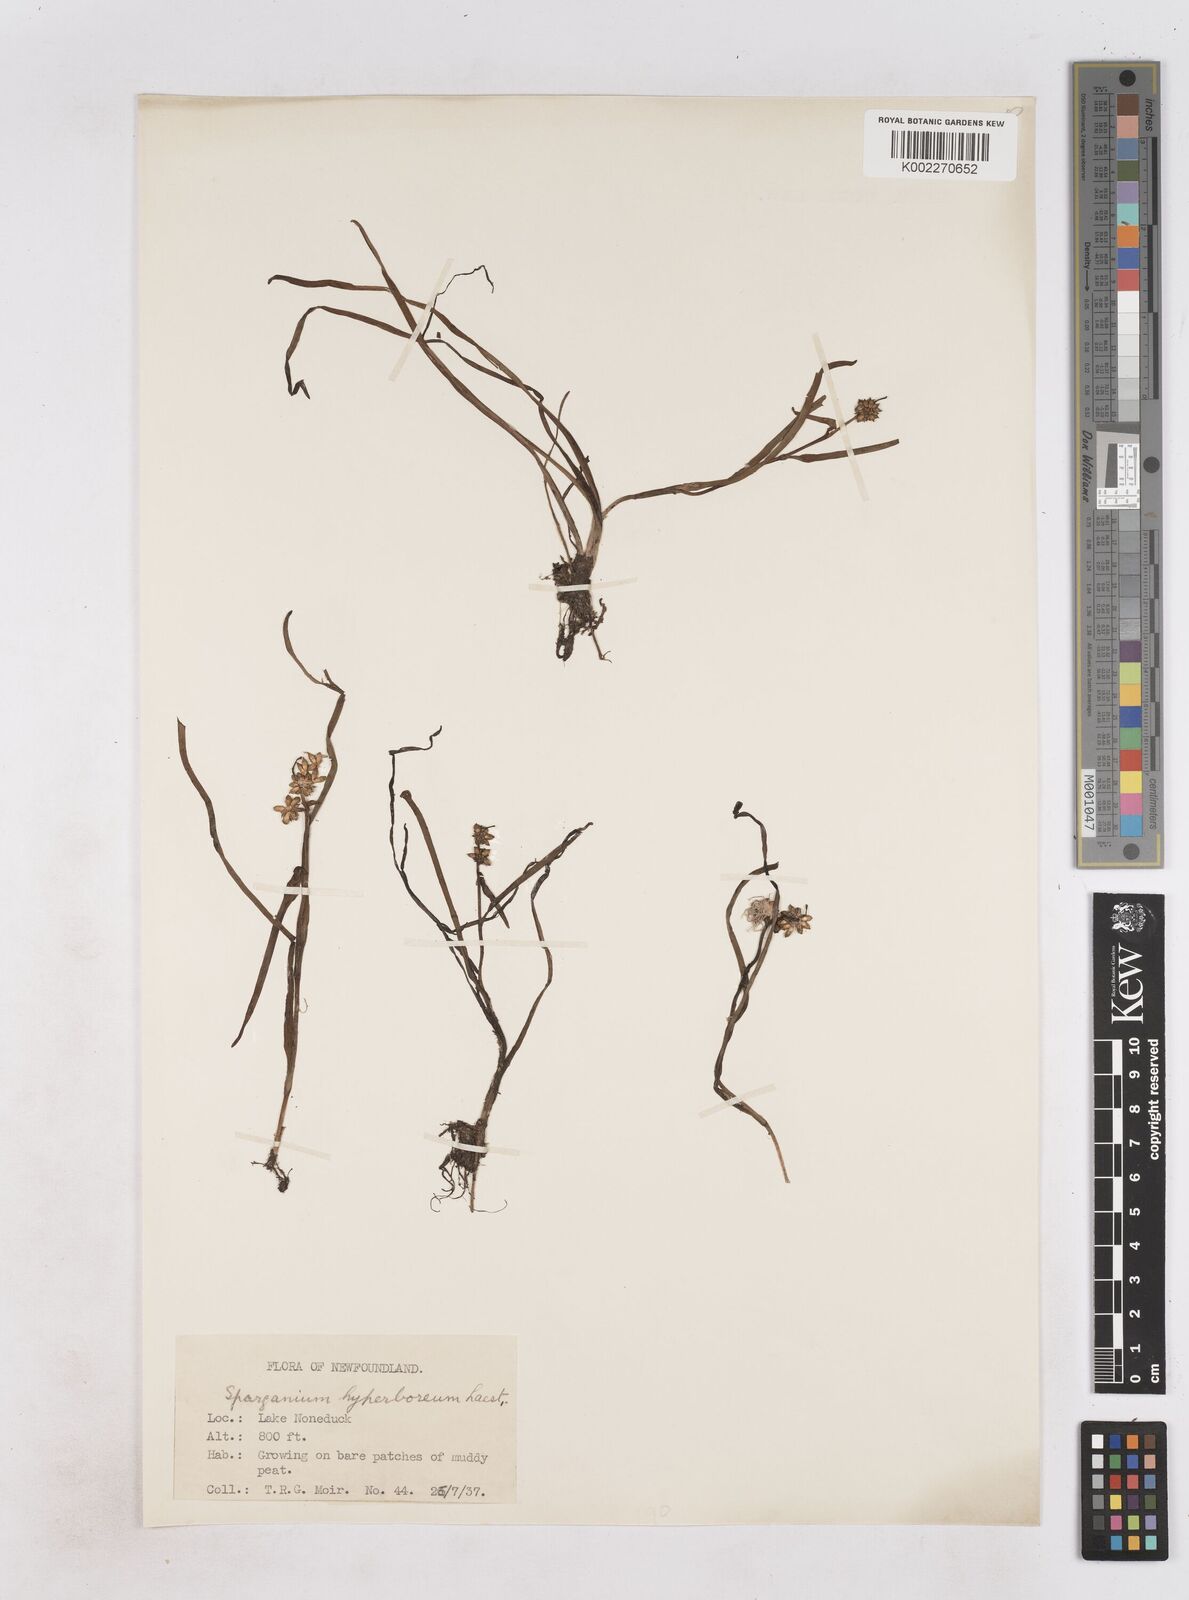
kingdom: Plantae
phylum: Tracheophyta
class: Liliopsida
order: Poales
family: Typhaceae
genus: Sparganium
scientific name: Sparganium hyperboreum
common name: Arctic burreed
